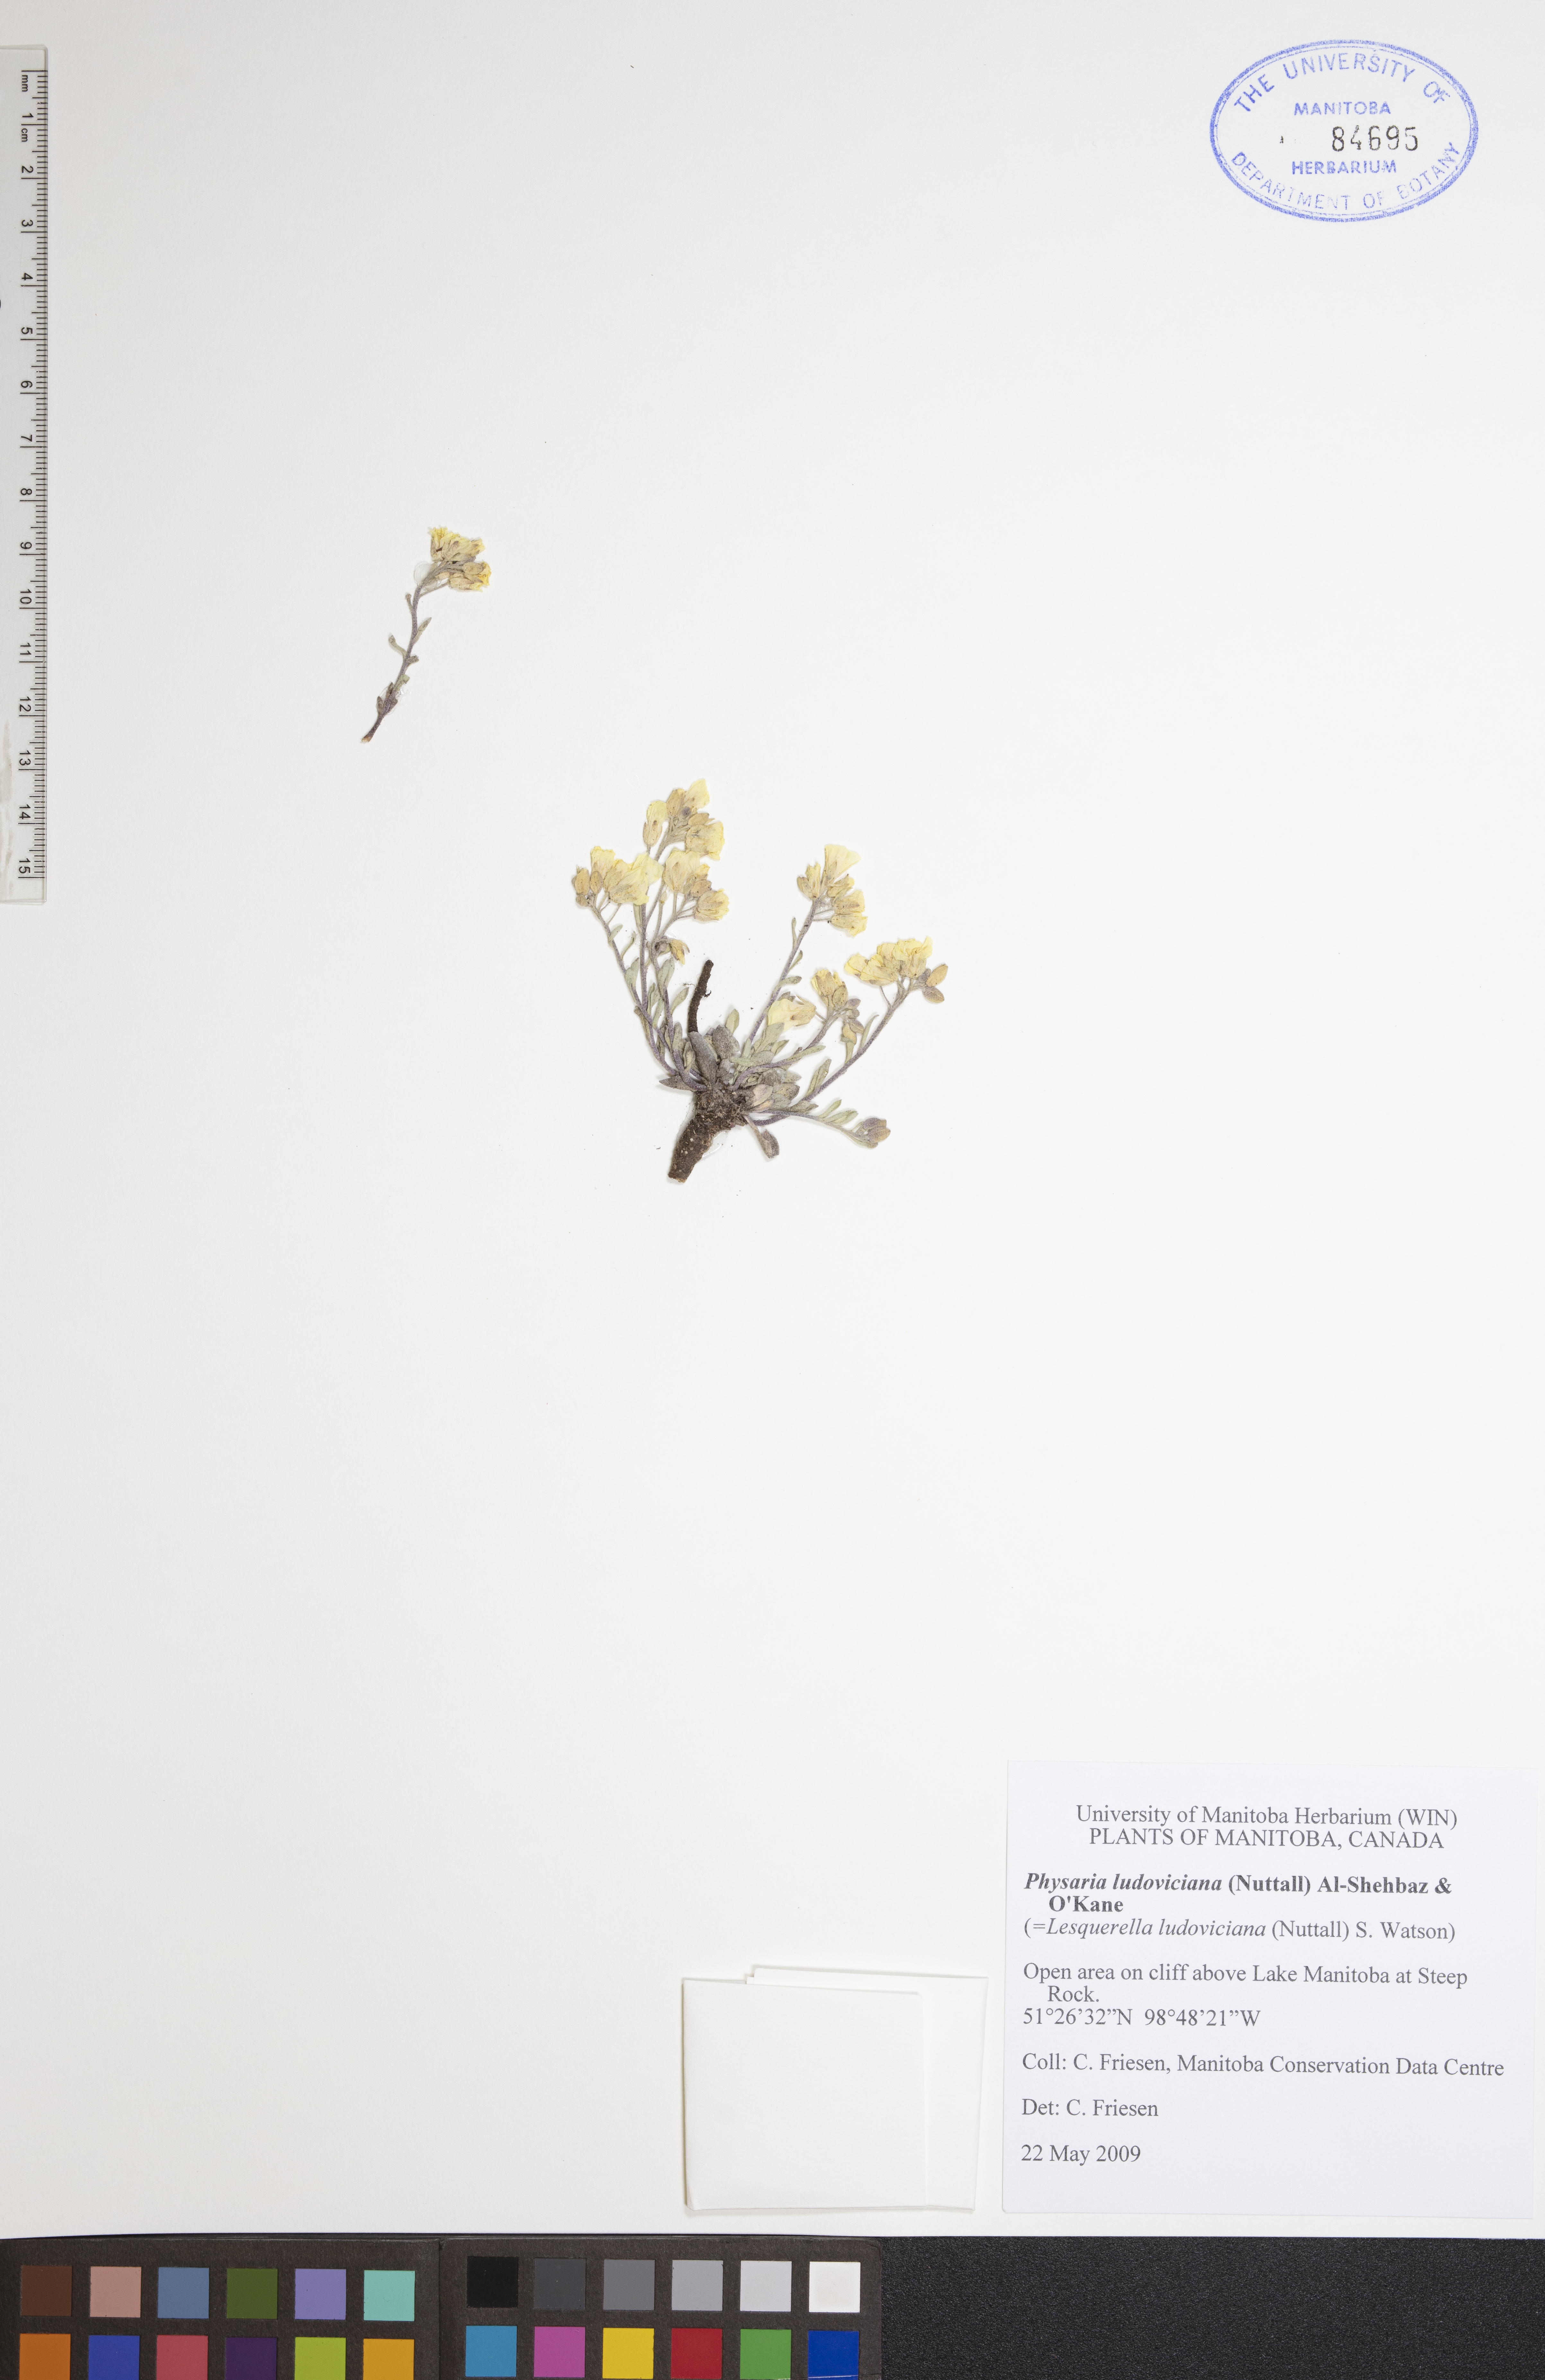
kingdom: Plantae
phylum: Tracheophyta
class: Magnoliopsida
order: Brassicales
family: Brassicaceae
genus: Physaria
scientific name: Physaria ludoviciana
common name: Foothill bladderpod
